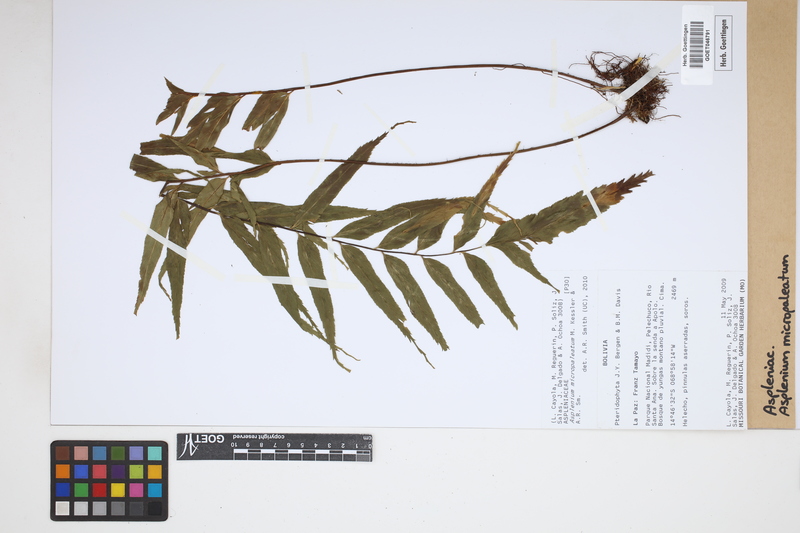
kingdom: Plantae
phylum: Tracheophyta
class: Polypodiopsida
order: Polypodiales
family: Aspleniaceae
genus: Asplenium
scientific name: Asplenium micropaleatum
